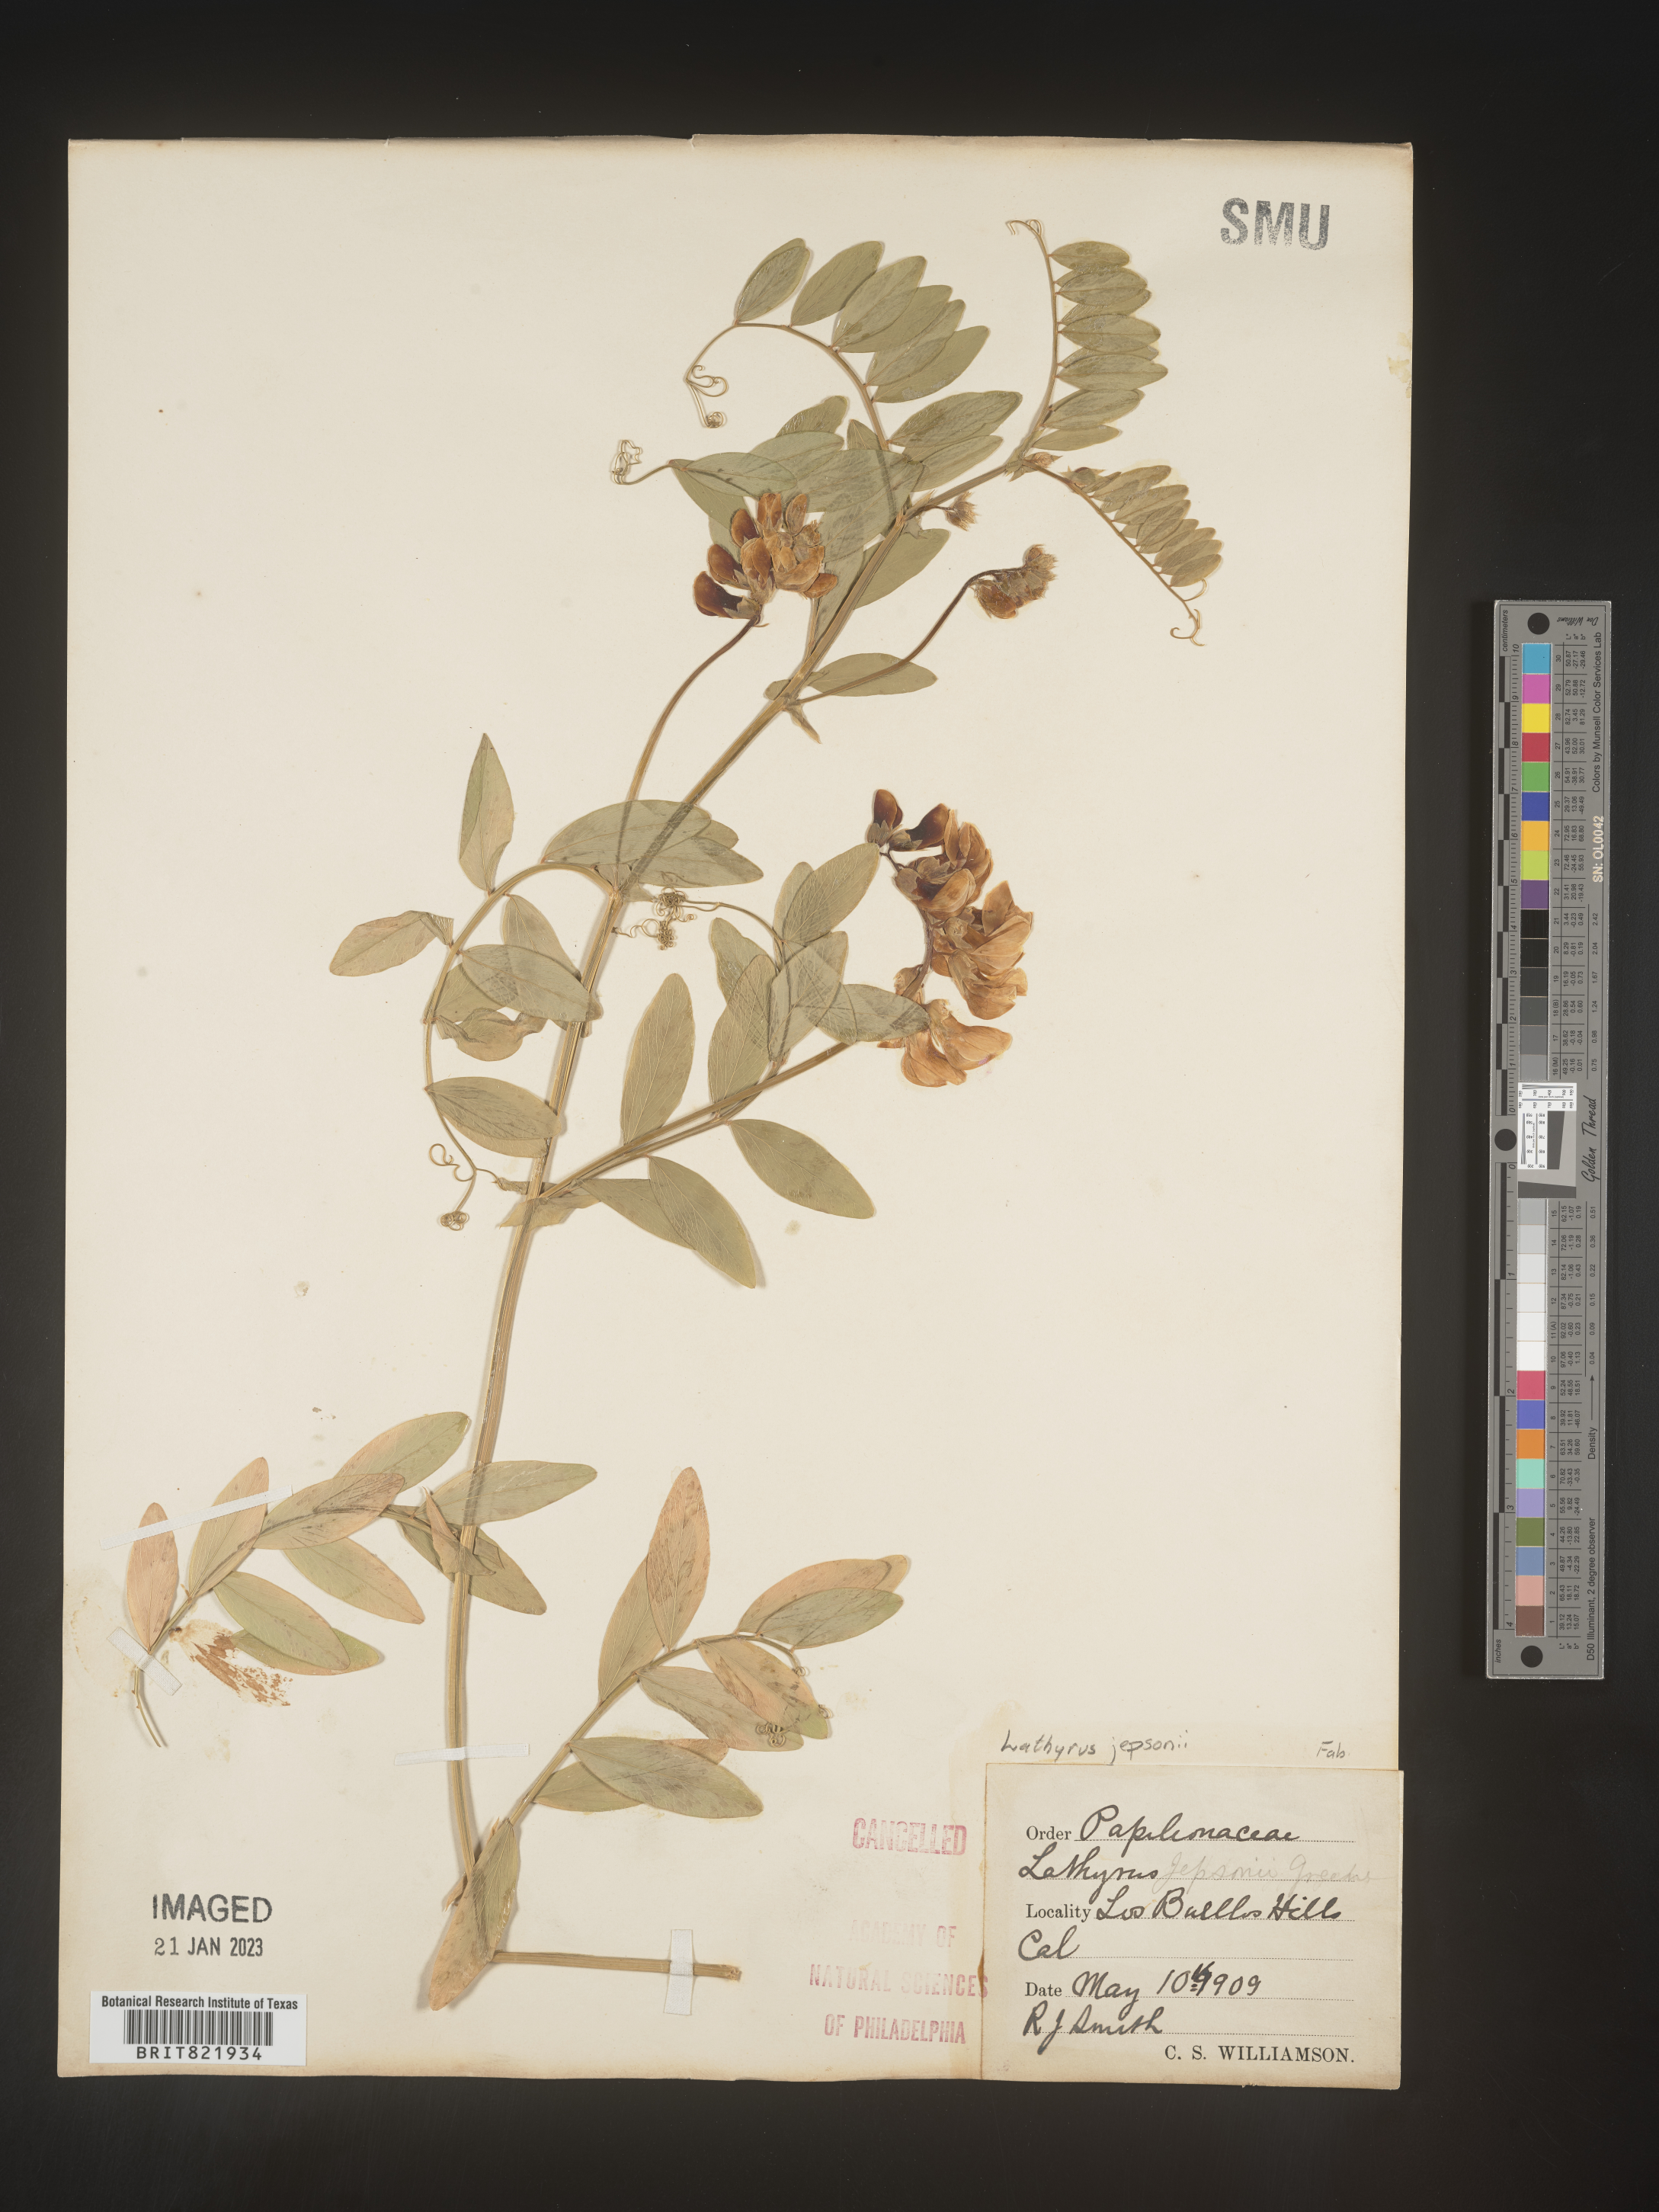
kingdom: Plantae
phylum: Tracheophyta
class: Magnoliopsida
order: Fabales
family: Fabaceae
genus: Lathyrus
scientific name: Lathyrus
